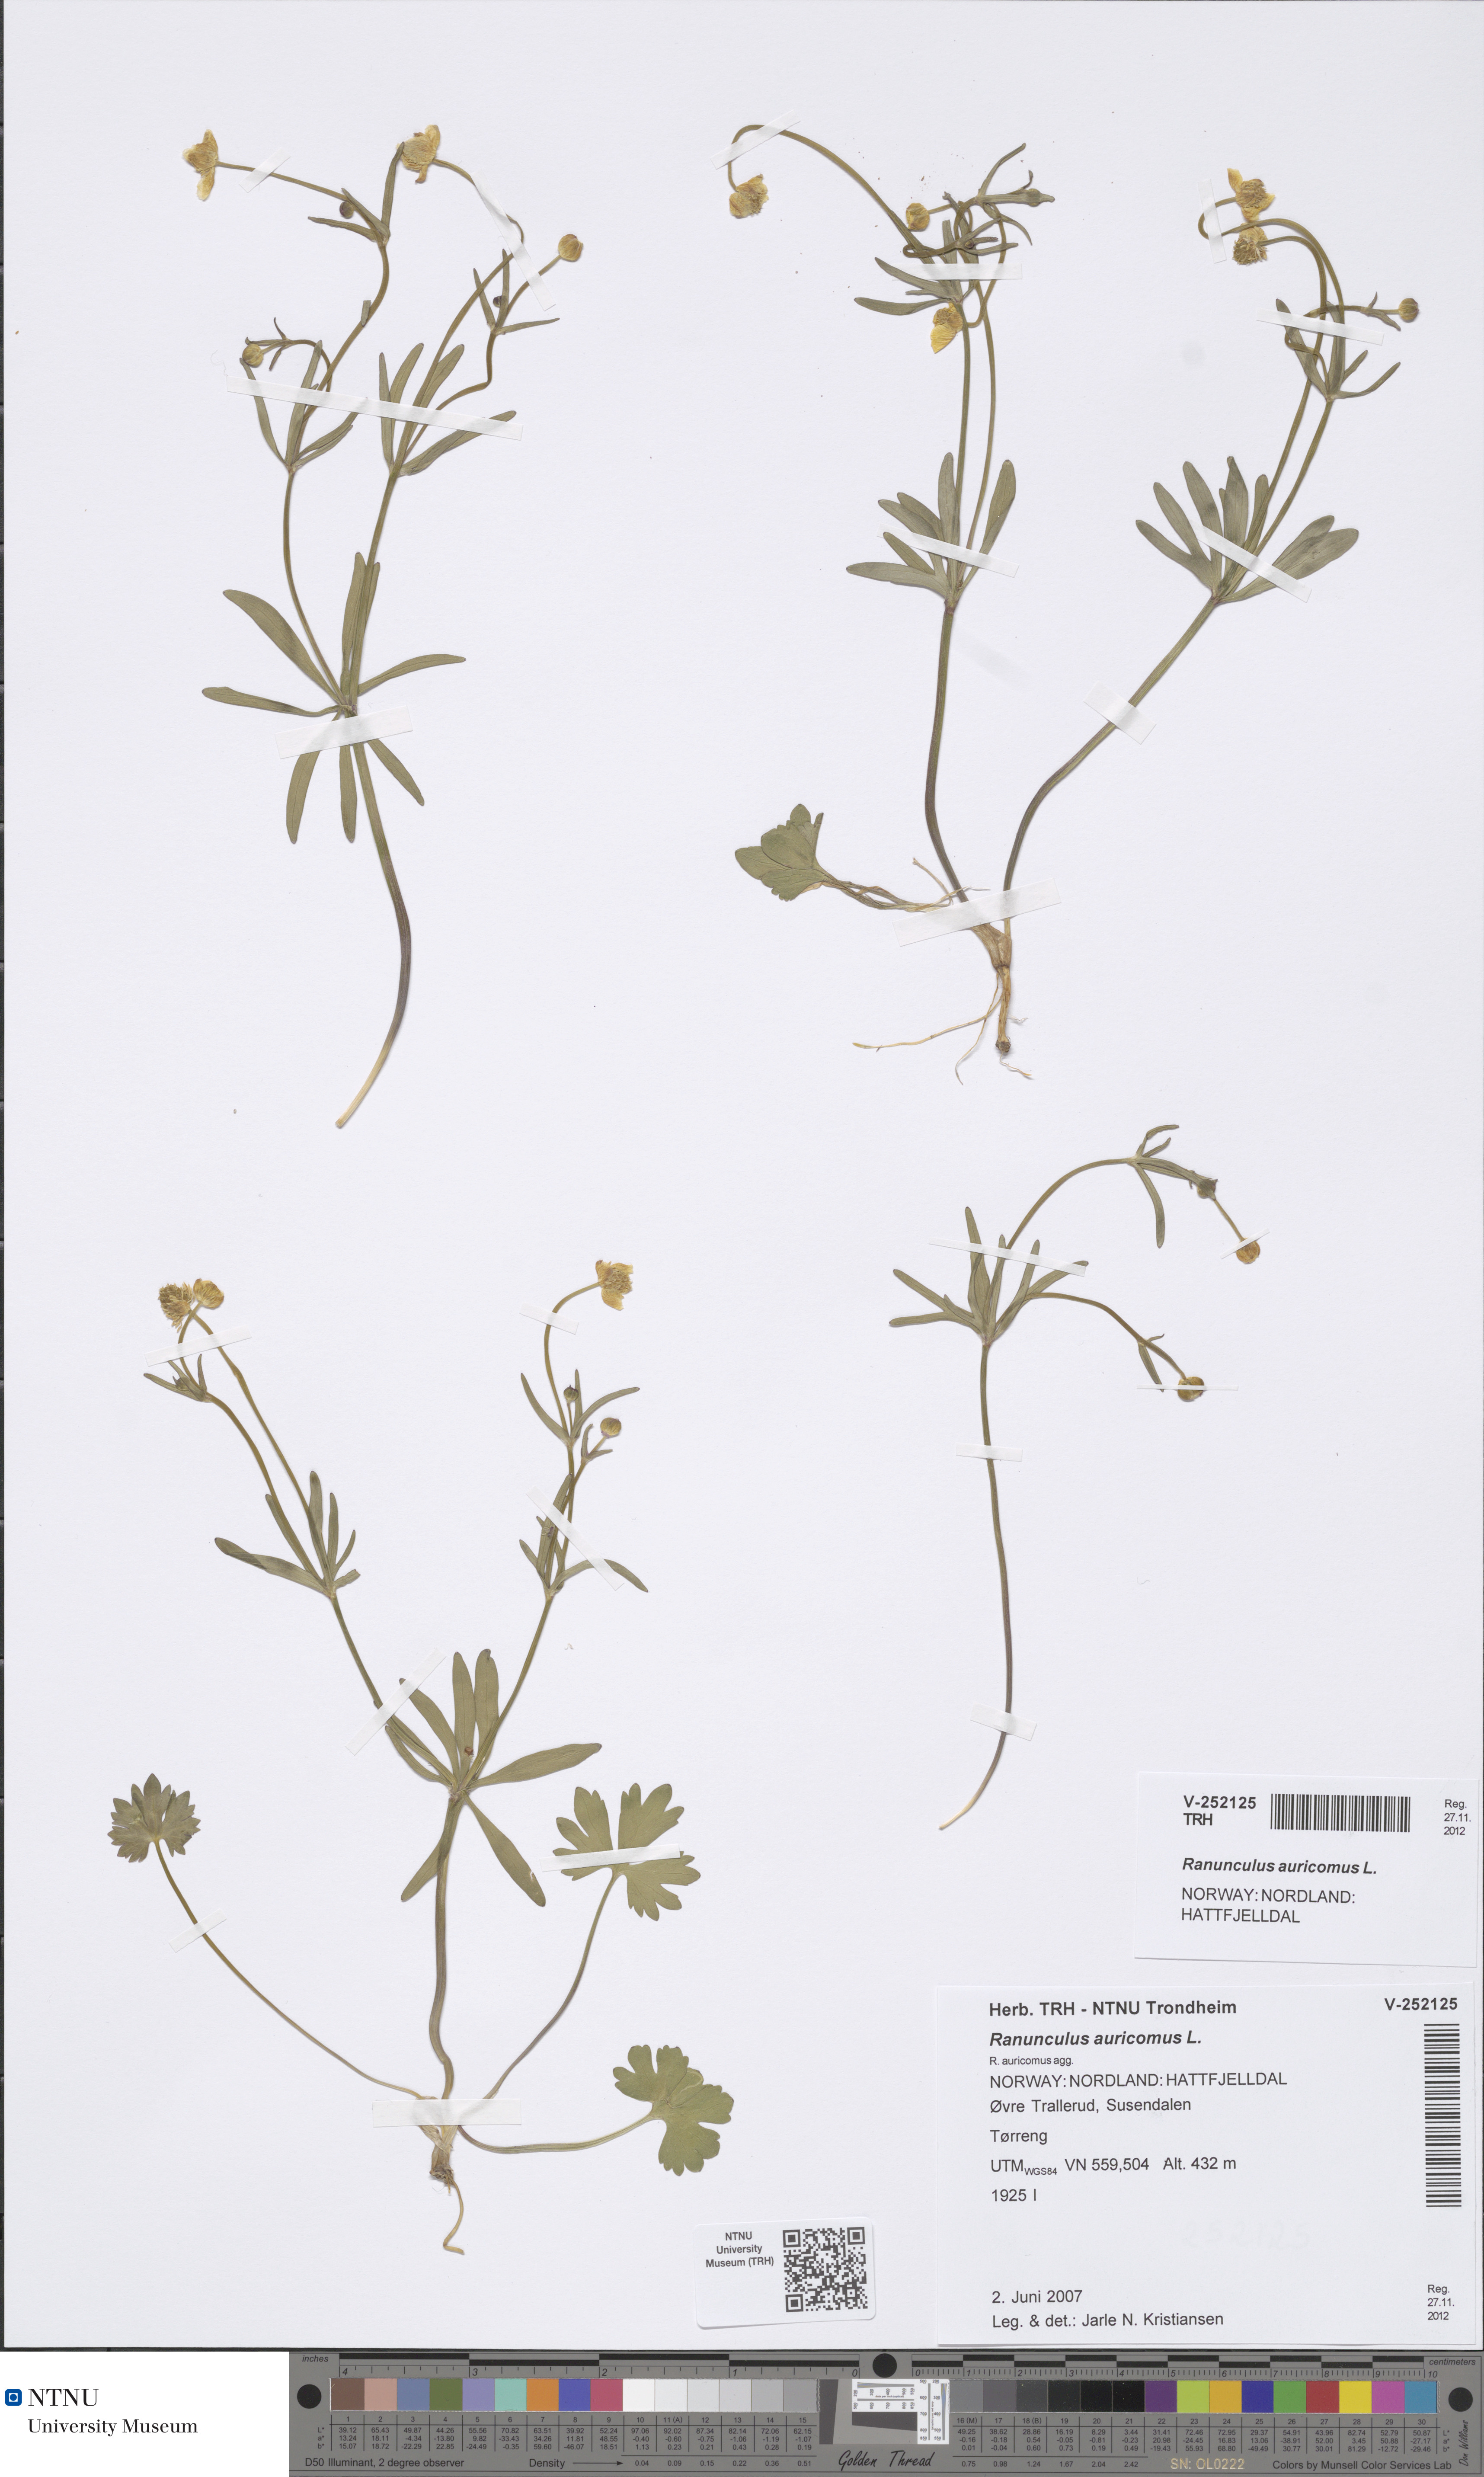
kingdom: Plantae
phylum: Tracheophyta
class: Magnoliopsida
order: Ranunculales
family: Ranunculaceae
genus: Ranunculus
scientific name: Ranunculus
